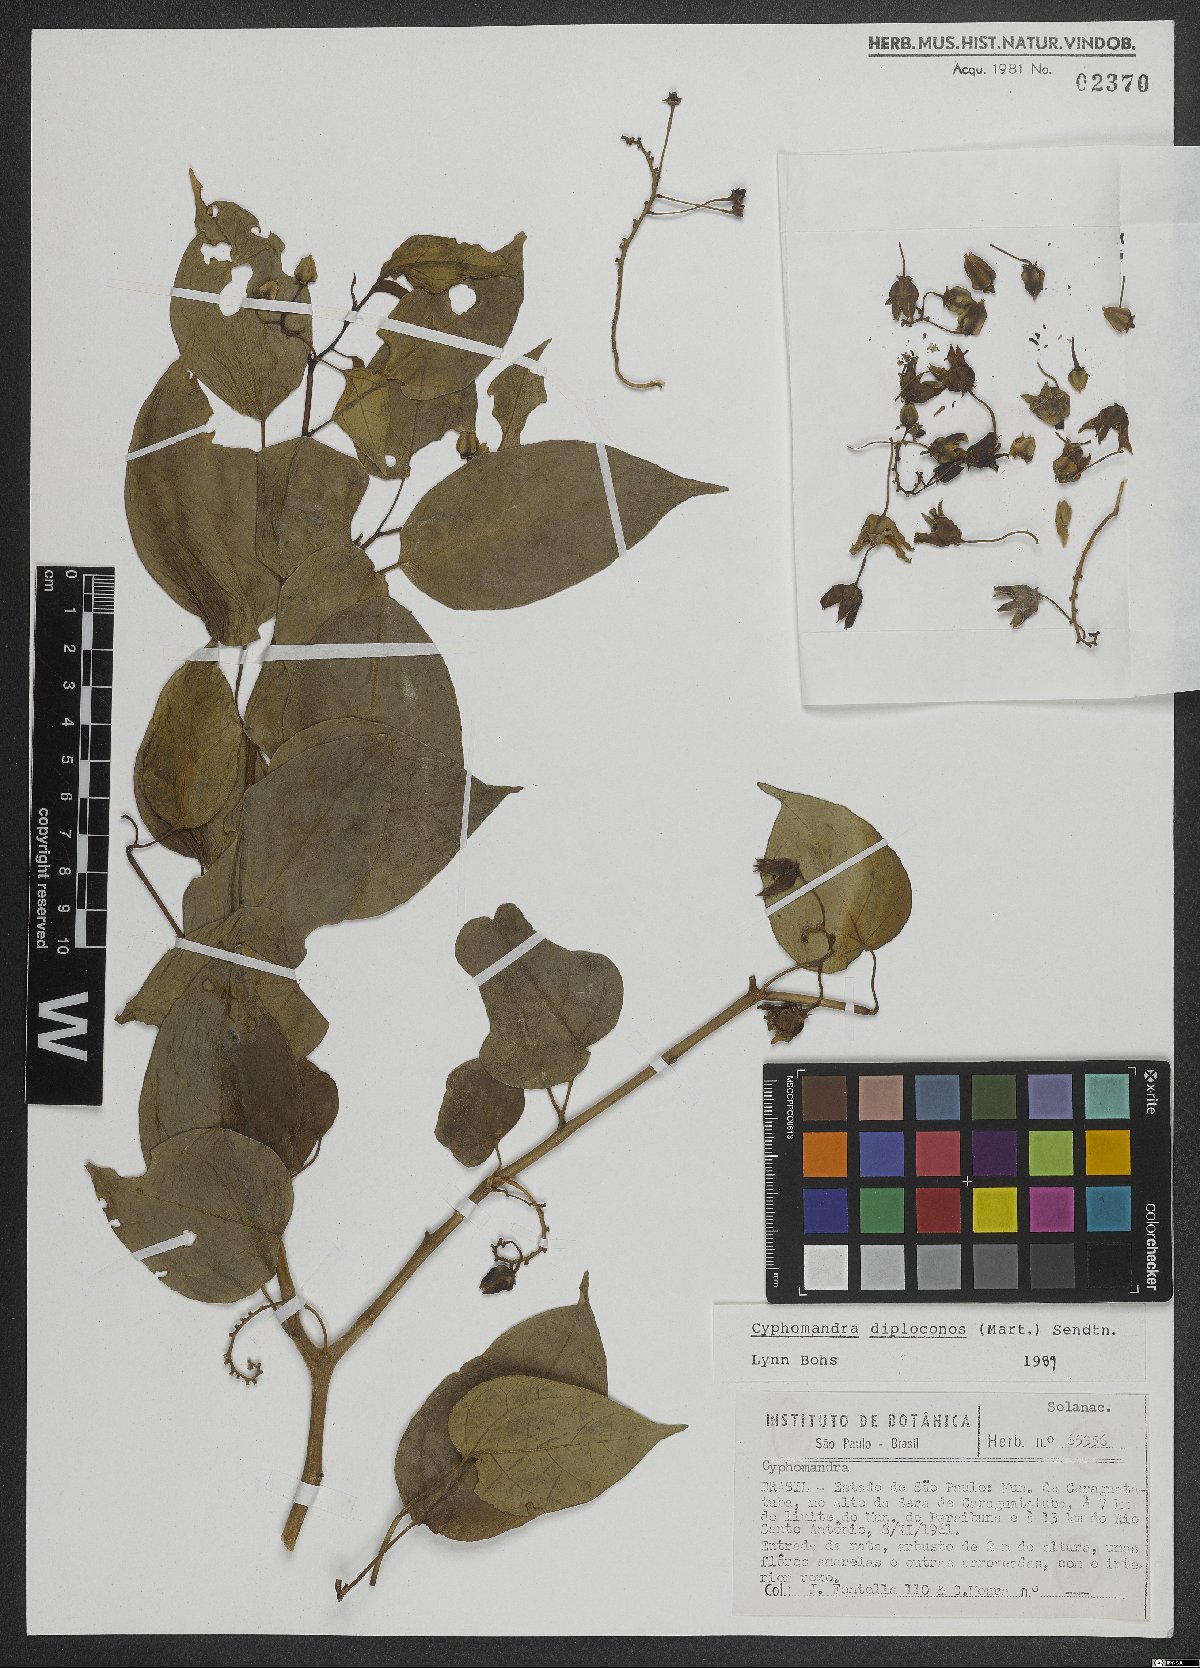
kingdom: Plantae
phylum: Tracheophyta
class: Magnoliopsida
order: Solanales
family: Solanaceae
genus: Solanum
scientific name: Solanum diploconos
